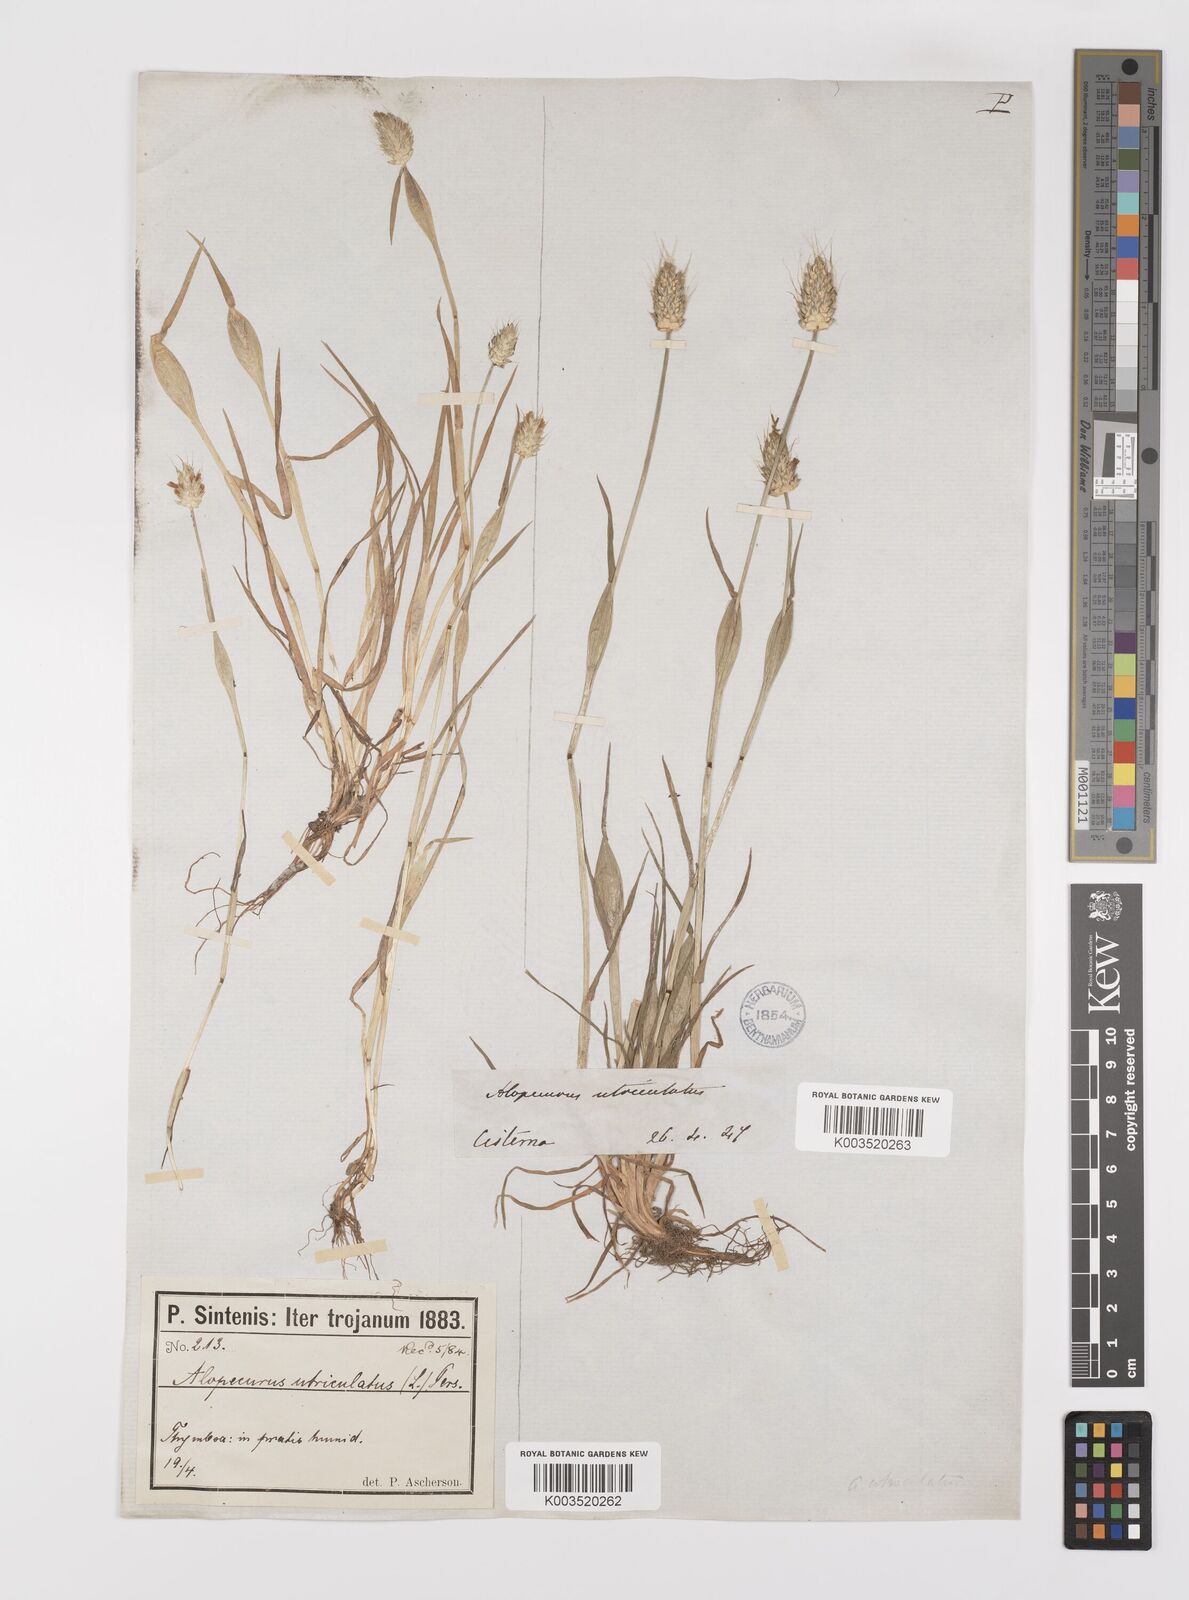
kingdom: Plantae
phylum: Tracheophyta
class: Liliopsida
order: Poales
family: Poaceae
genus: Alopecurus
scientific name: Alopecurus rendlei
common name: Rendle's meadow foxtail
